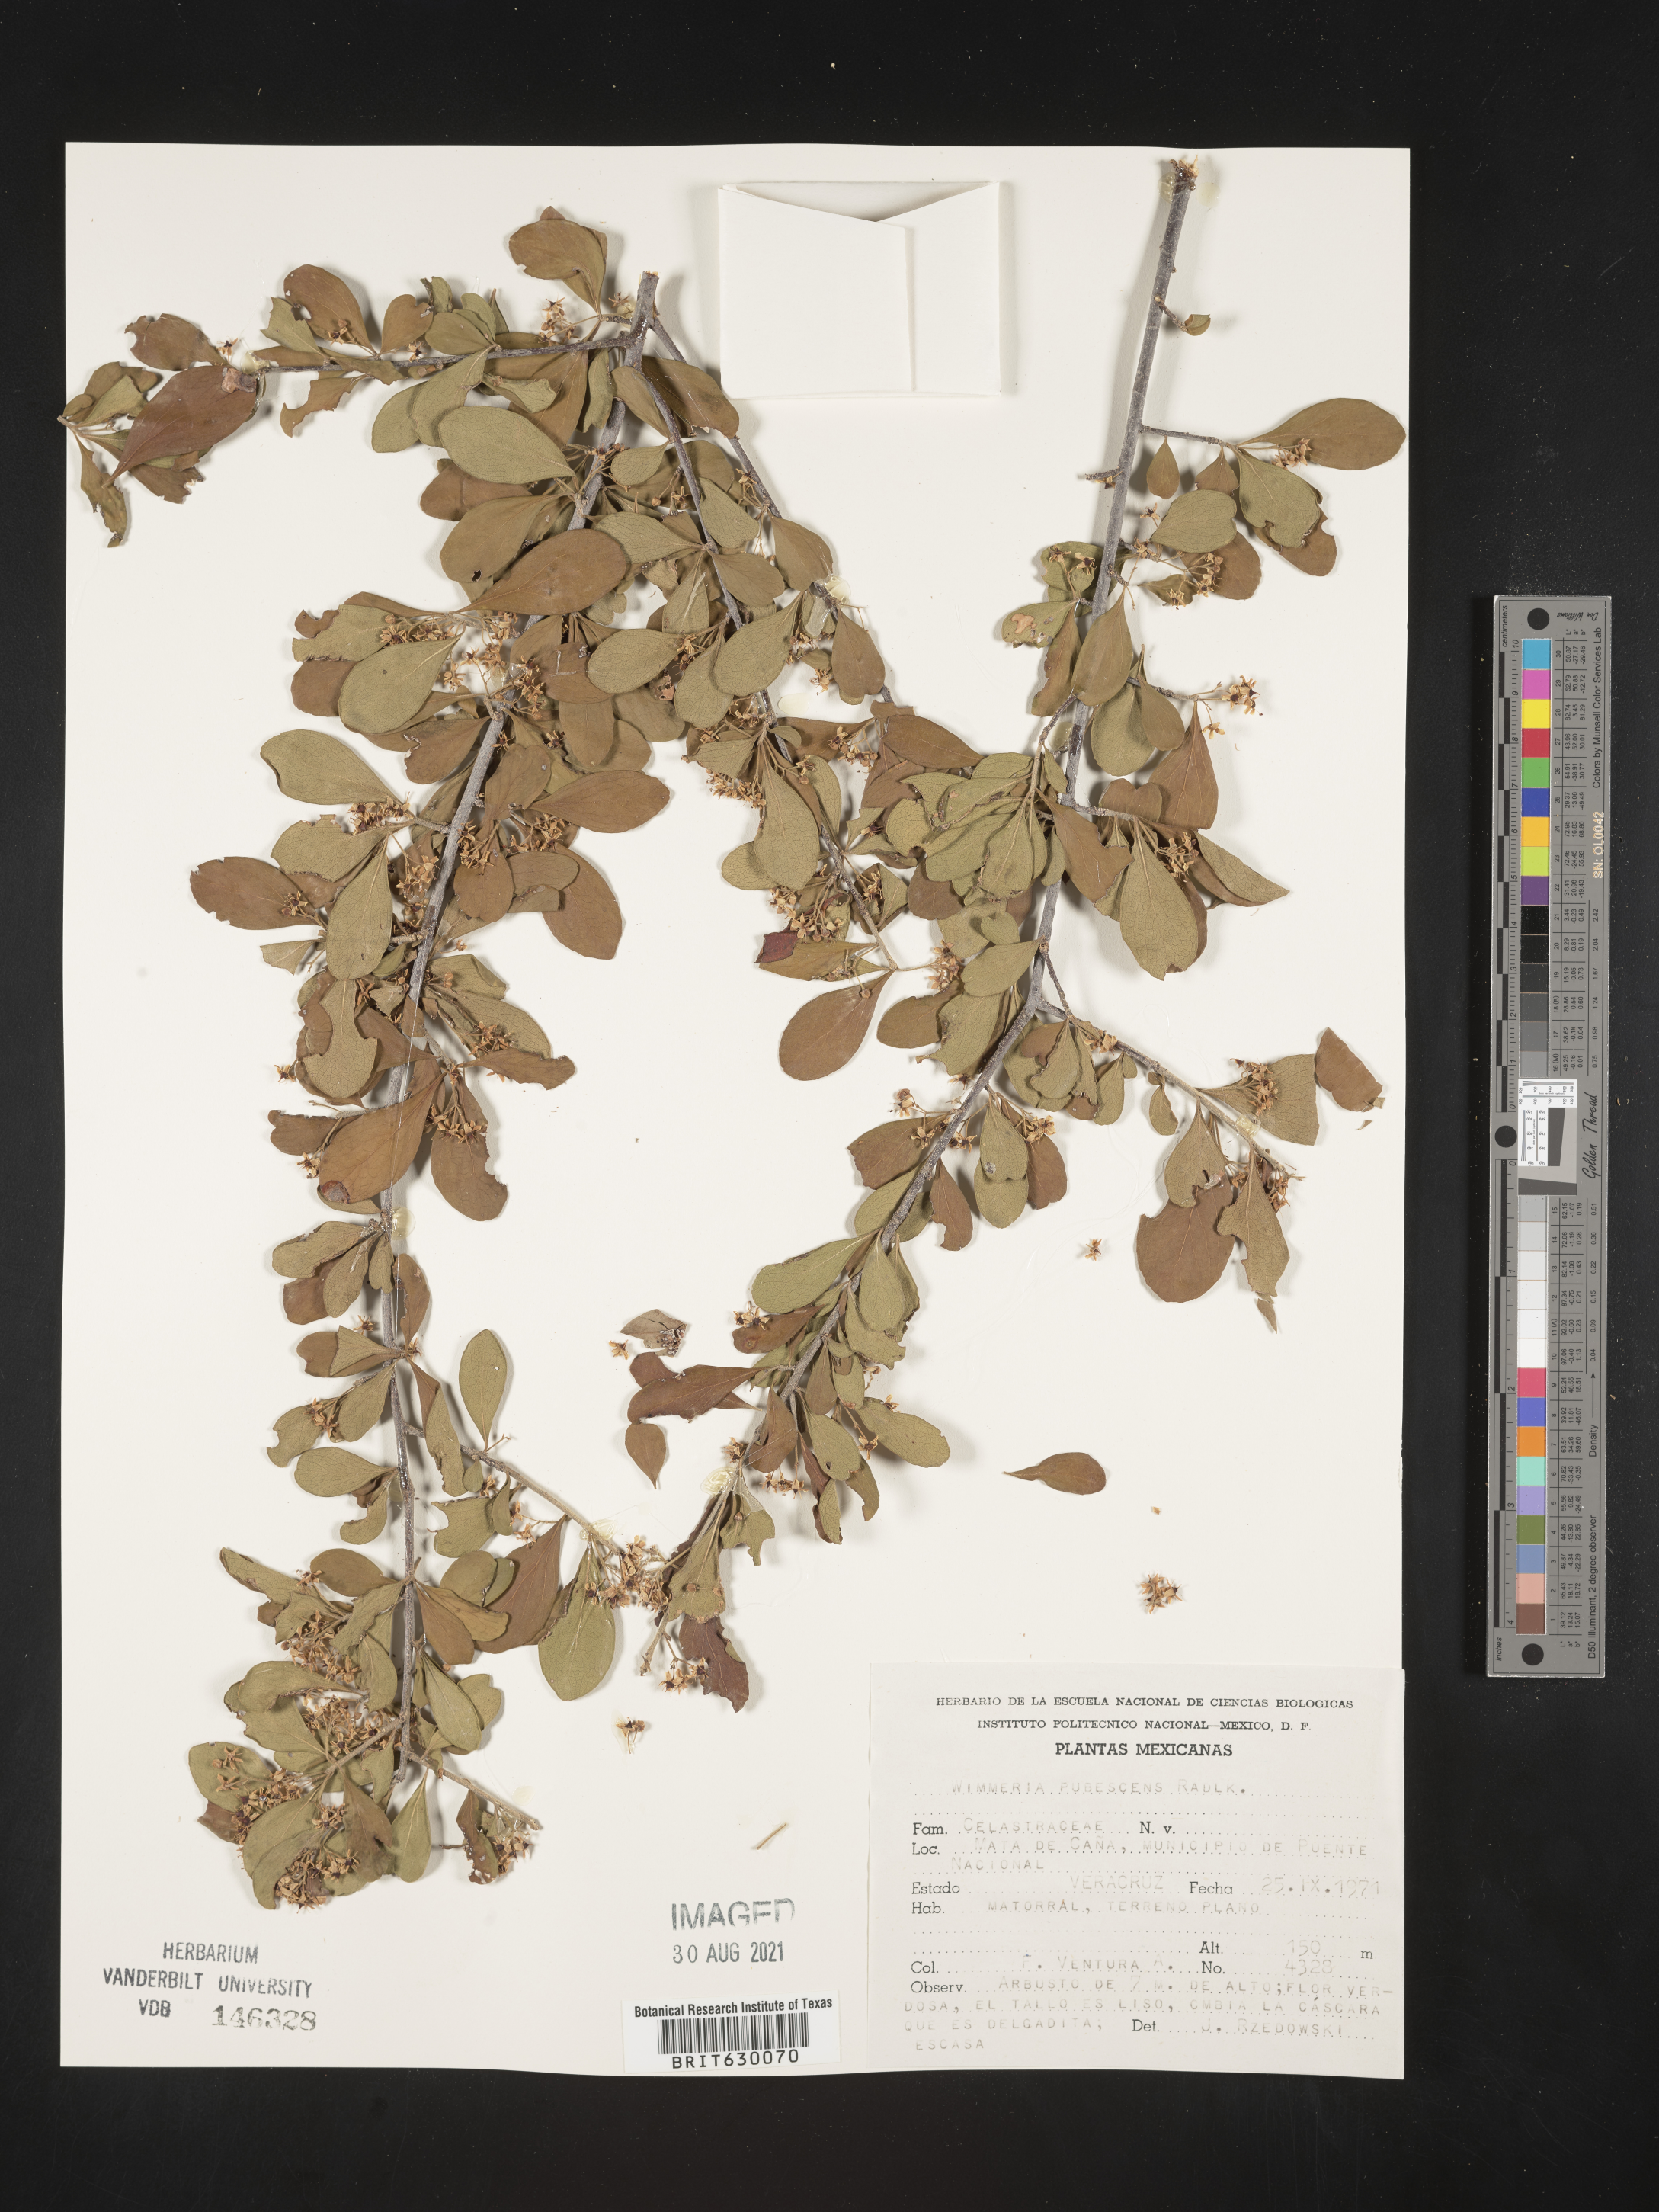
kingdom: Plantae
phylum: Tracheophyta
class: Magnoliopsida
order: Celastrales
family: Celastraceae
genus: Wimmeria
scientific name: Wimmeria
